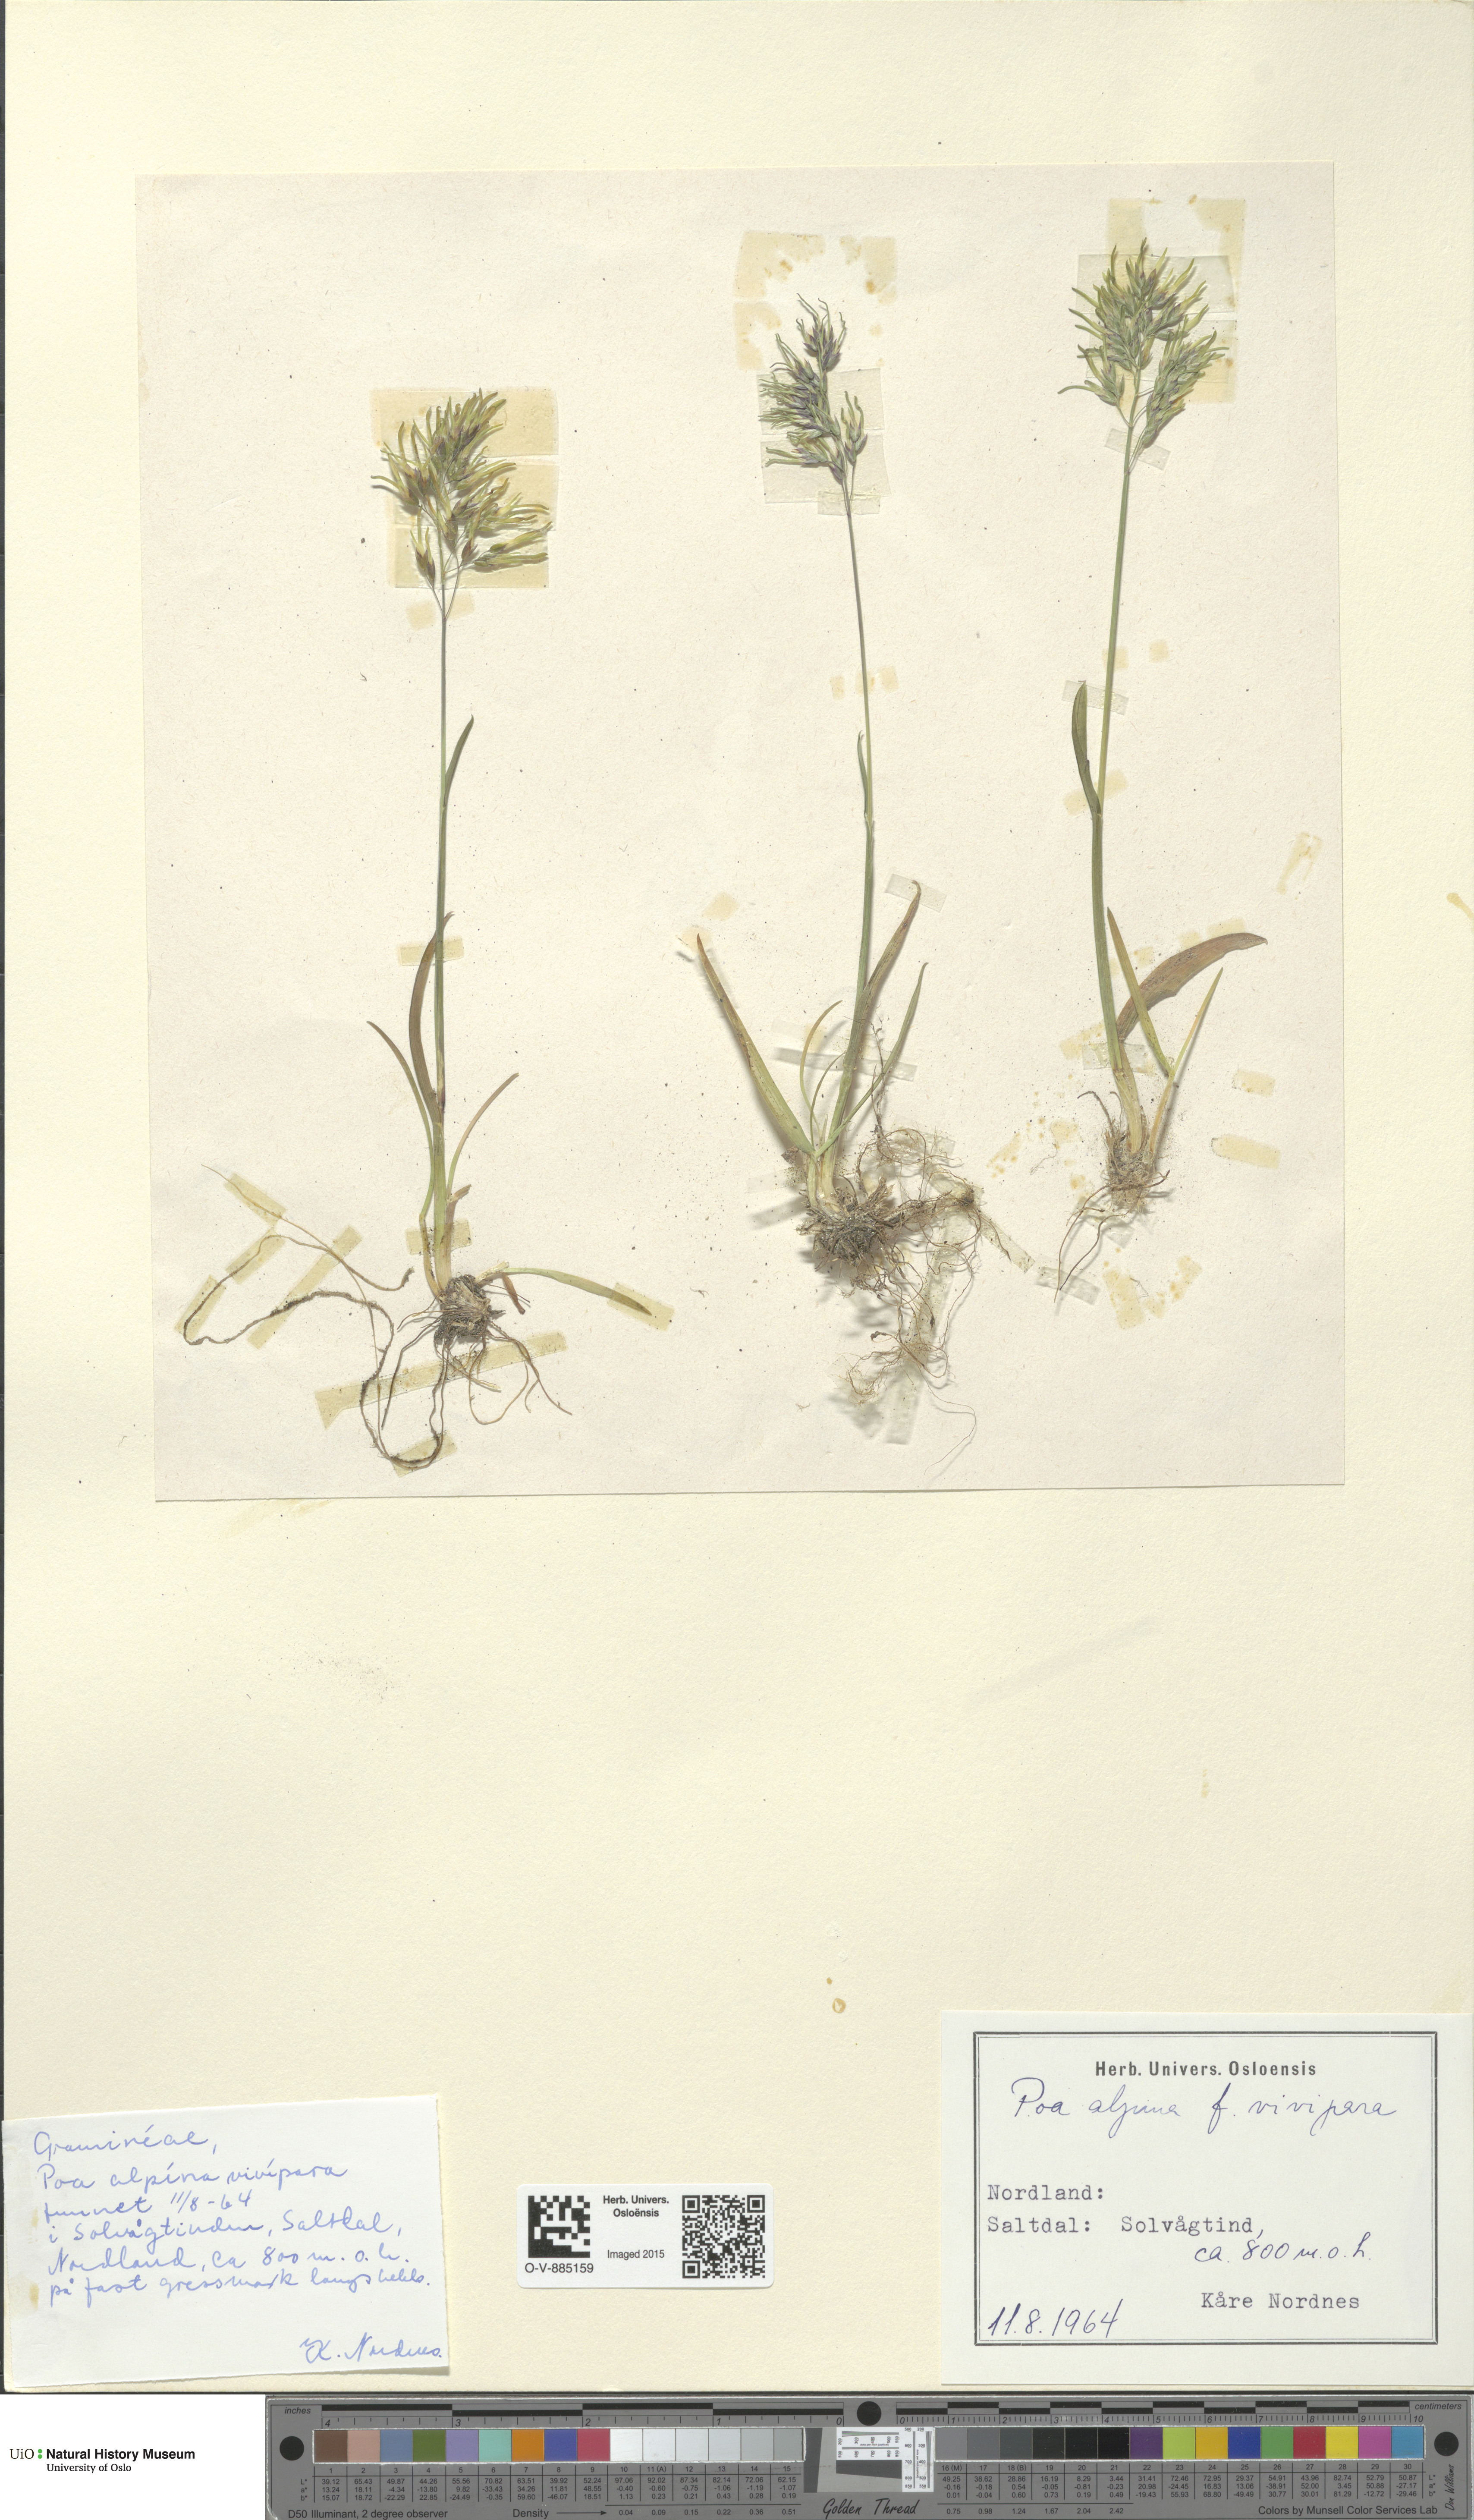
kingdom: Plantae
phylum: Tracheophyta
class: Liliopsida
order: Poales
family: Poaceae
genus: Poa
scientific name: Poa alpina
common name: Alpine bluegrass
